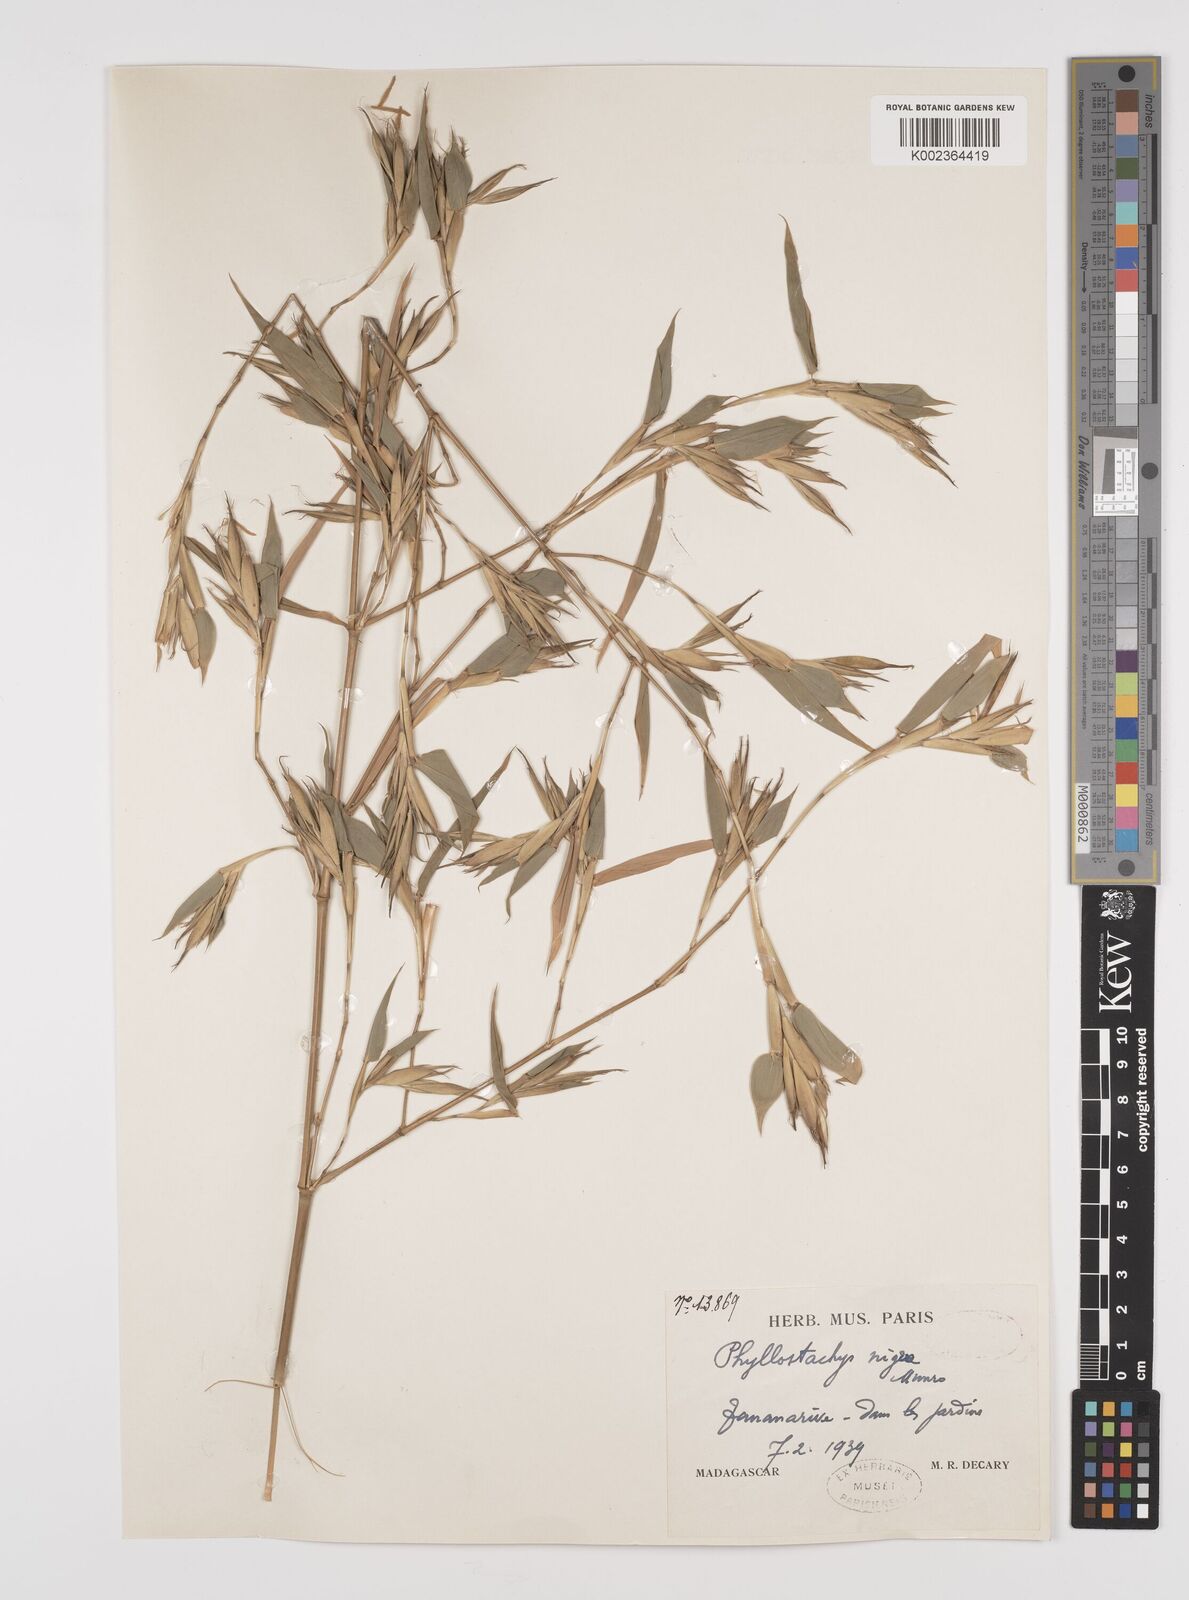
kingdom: Plantae
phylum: Tracheophyta
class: Liliopsida
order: Poales
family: Poaceae
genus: Phyllostachys
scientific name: Phyllostachys nigra
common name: Black bamboo
